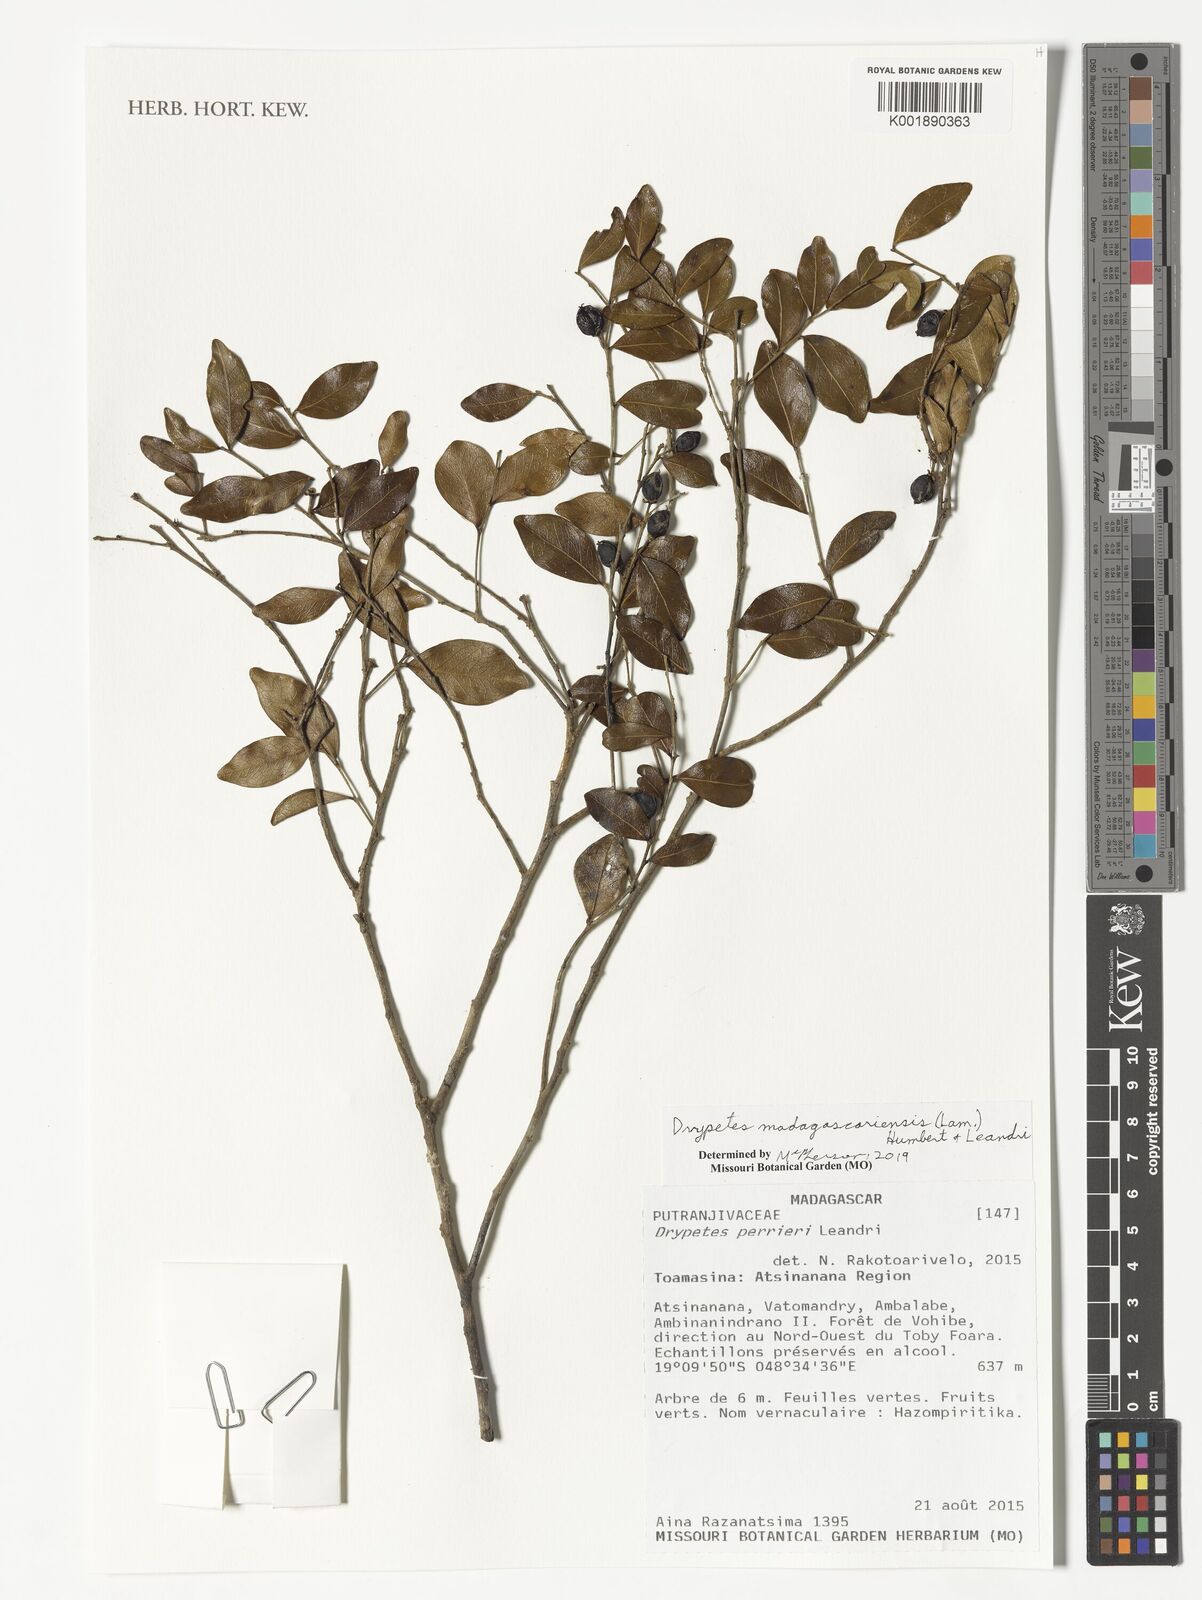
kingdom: Plantae
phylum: Tracheophyta
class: Magnoliopsida
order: Malpighiales
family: Putranjivaceae
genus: Drypetes
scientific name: Drypetes madagascariensis
